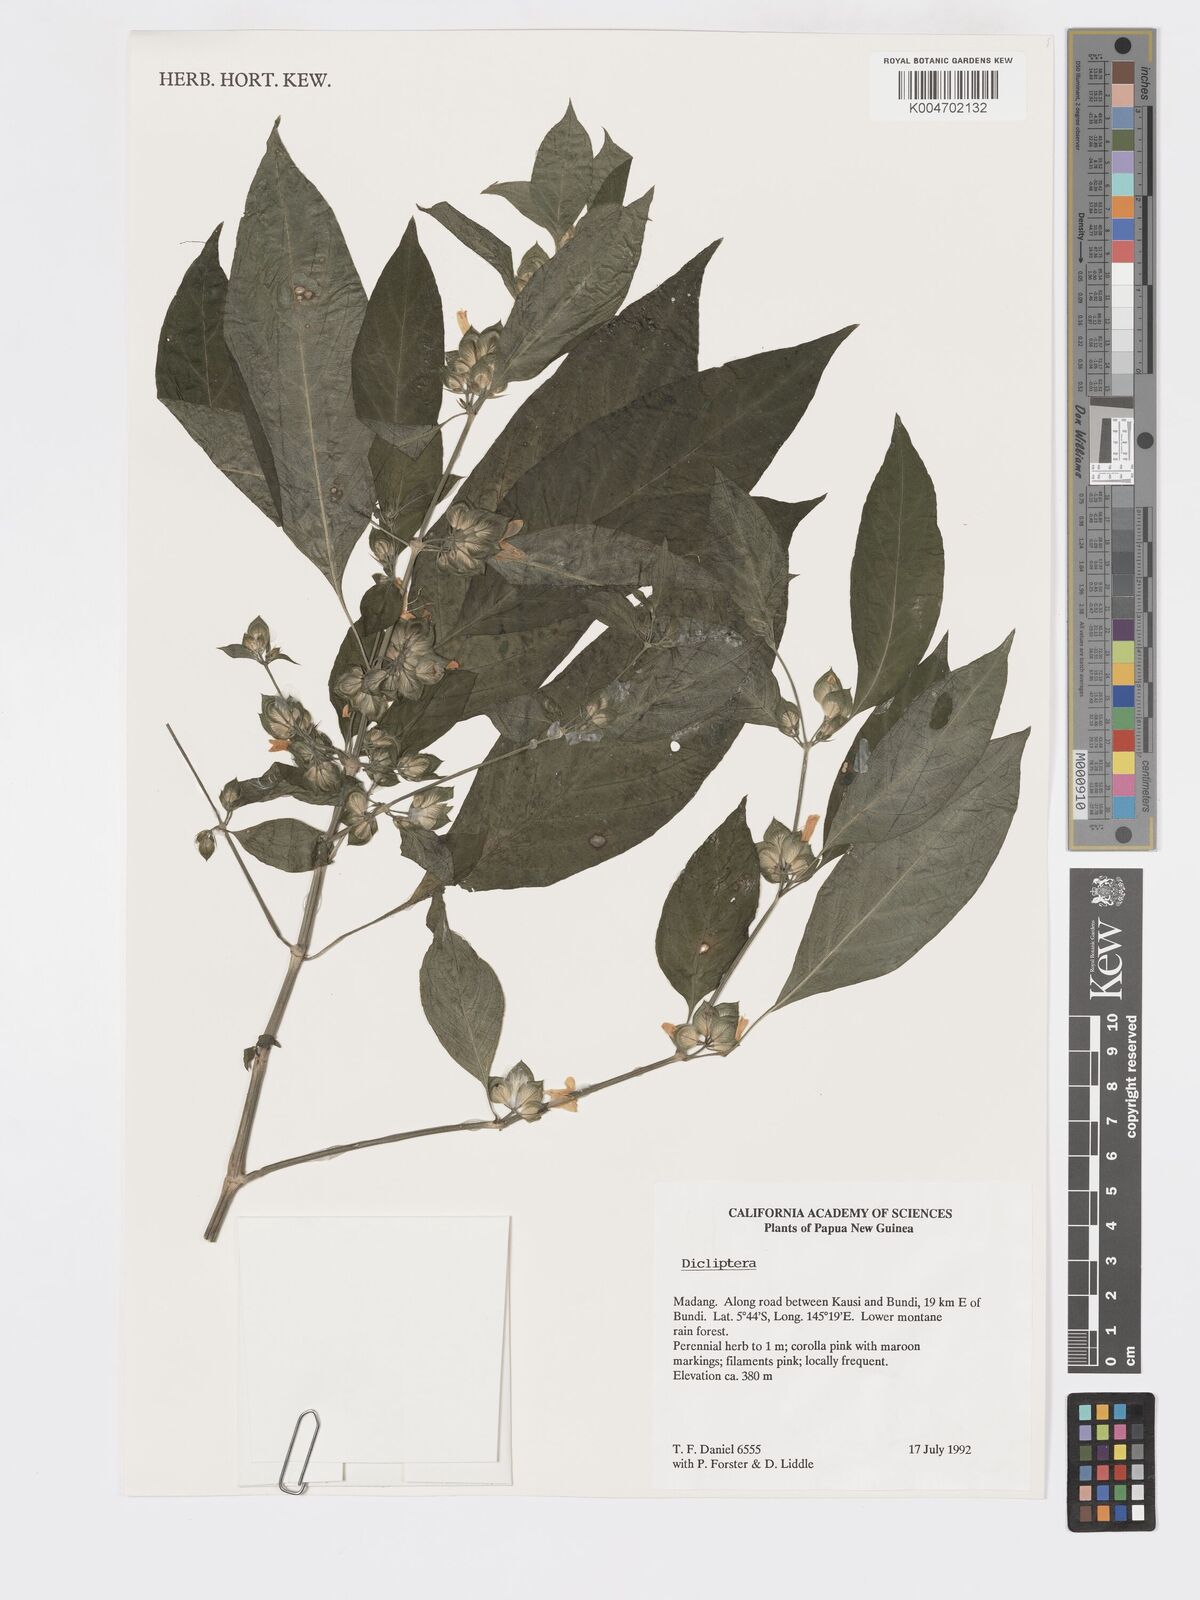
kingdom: Plantae
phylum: Tracheophyta
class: Magnoliopsida
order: Lamiales
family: Acanthaceae
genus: Dicliptera
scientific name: Dicliptera papuana
